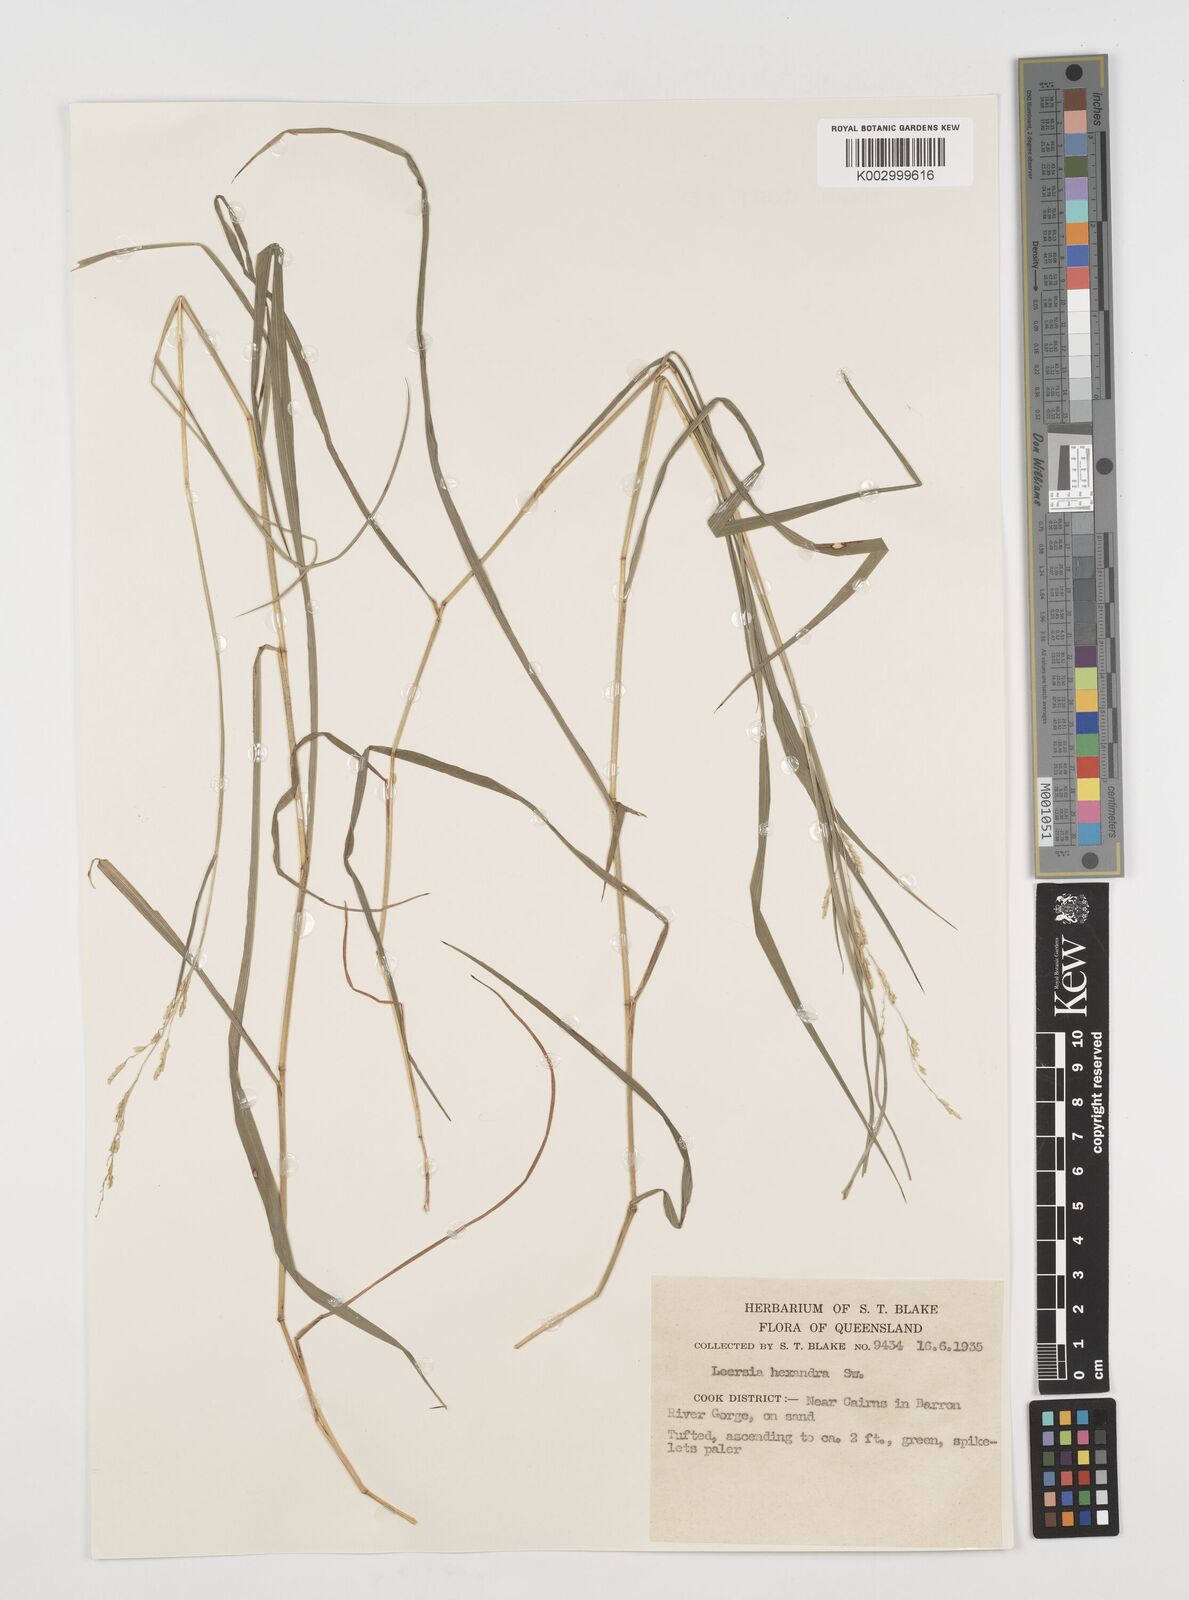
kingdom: Plantae
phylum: Tracheophyta
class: Liliopsida
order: Poales
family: Poaceae
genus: Leersia
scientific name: Leersia hexandra
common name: Southern cut grass
